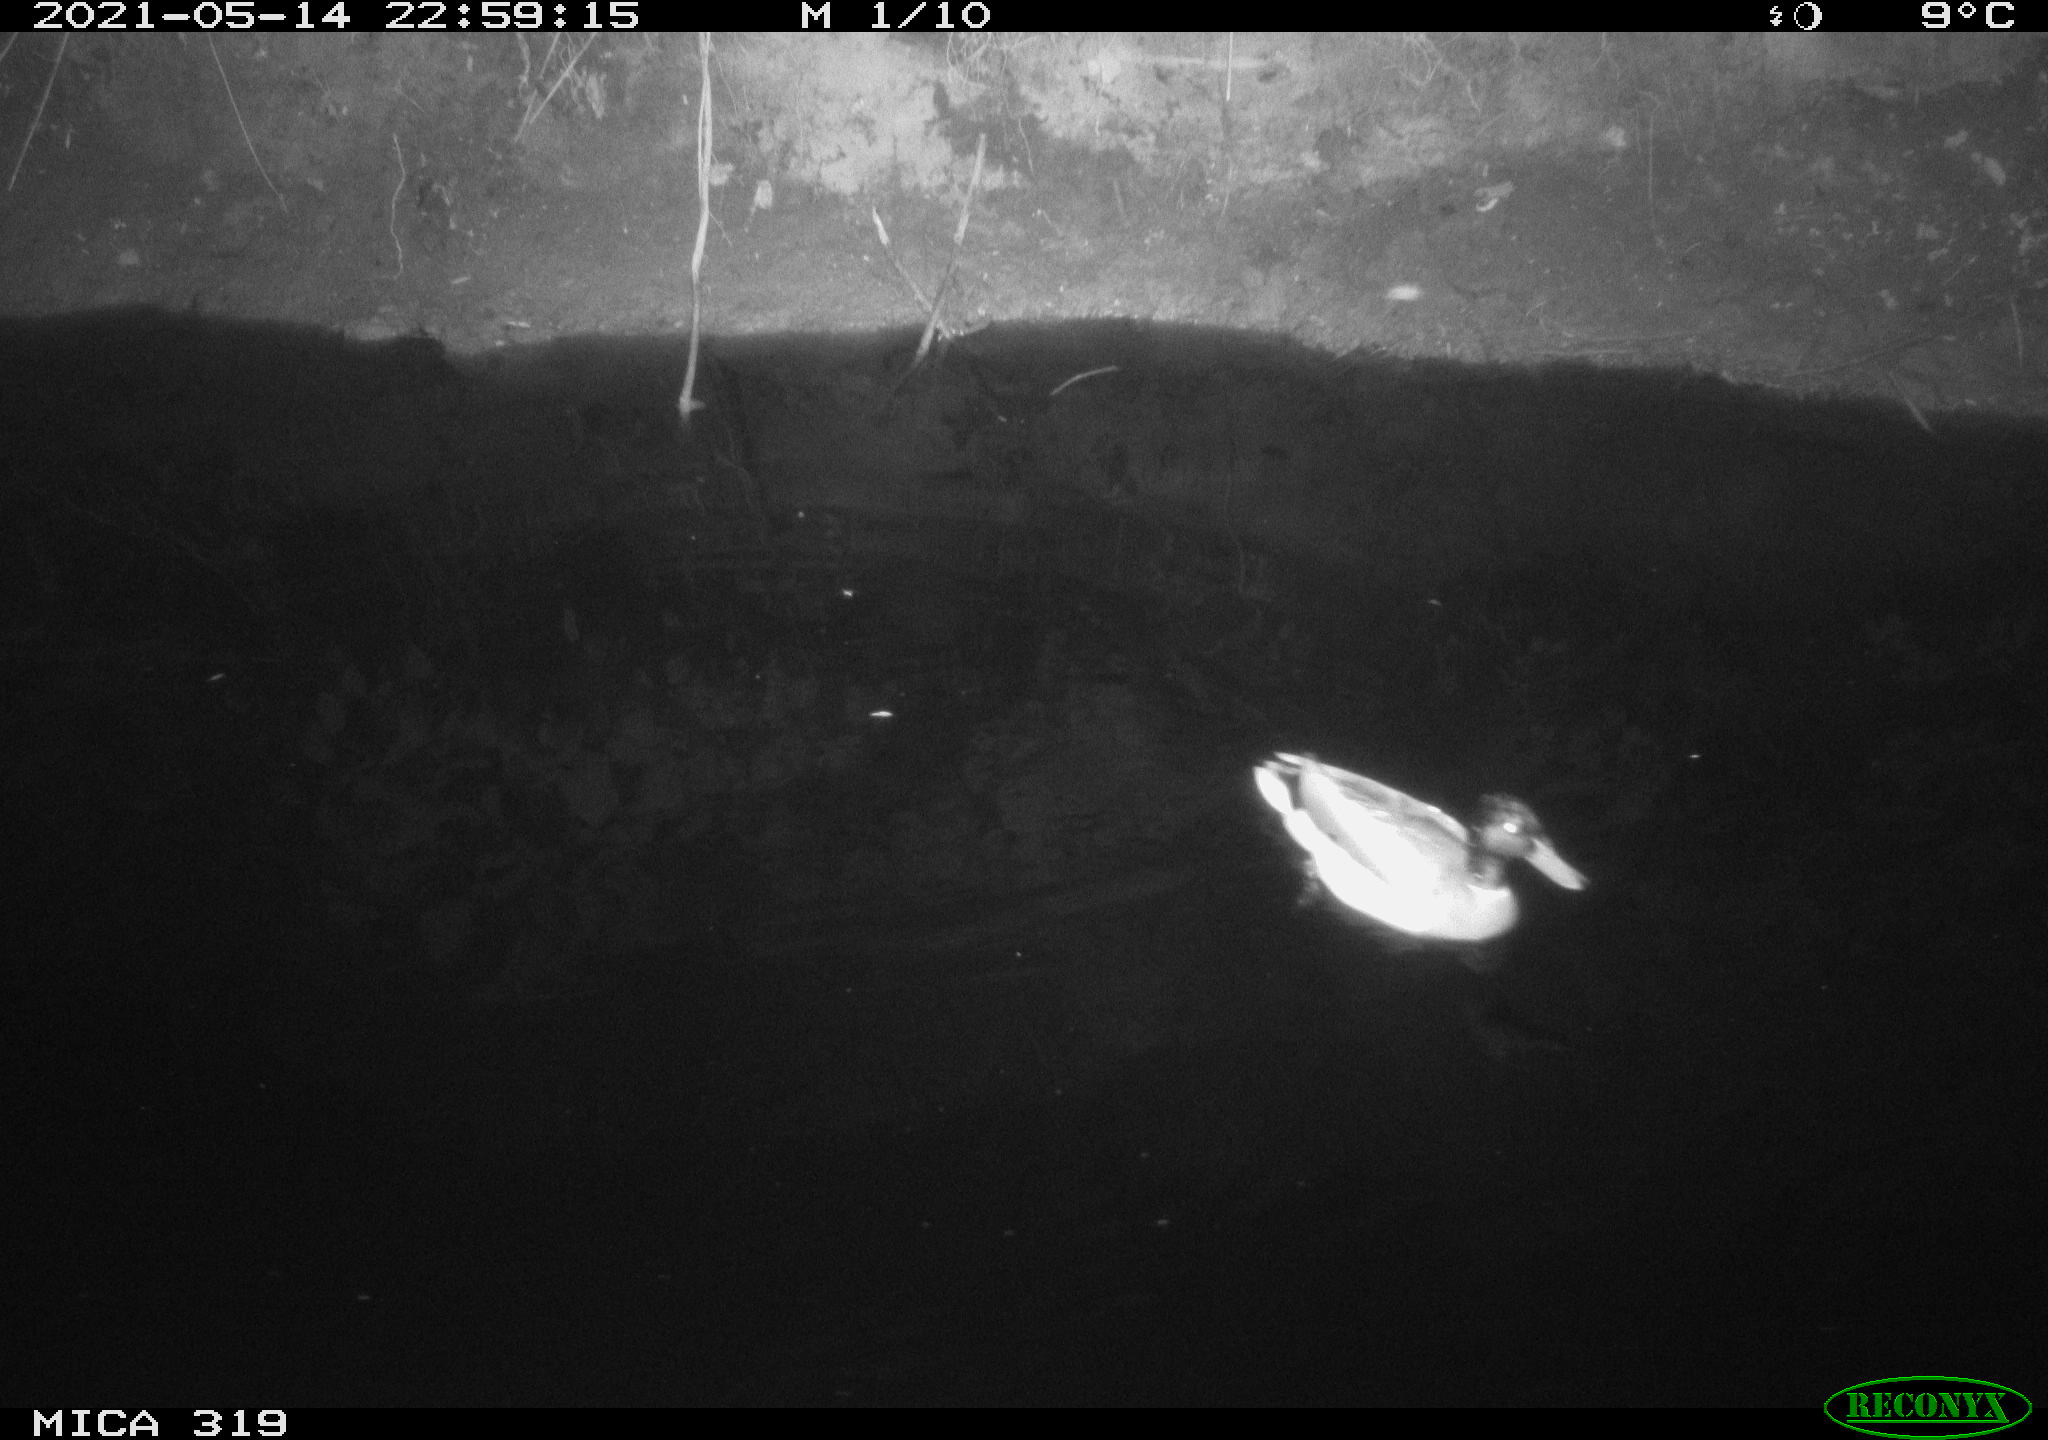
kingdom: Animalia
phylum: Chordata
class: Aves
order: Anseriformes
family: Anatidae
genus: Anas
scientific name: Anas platyrhynchos
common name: Mallard
